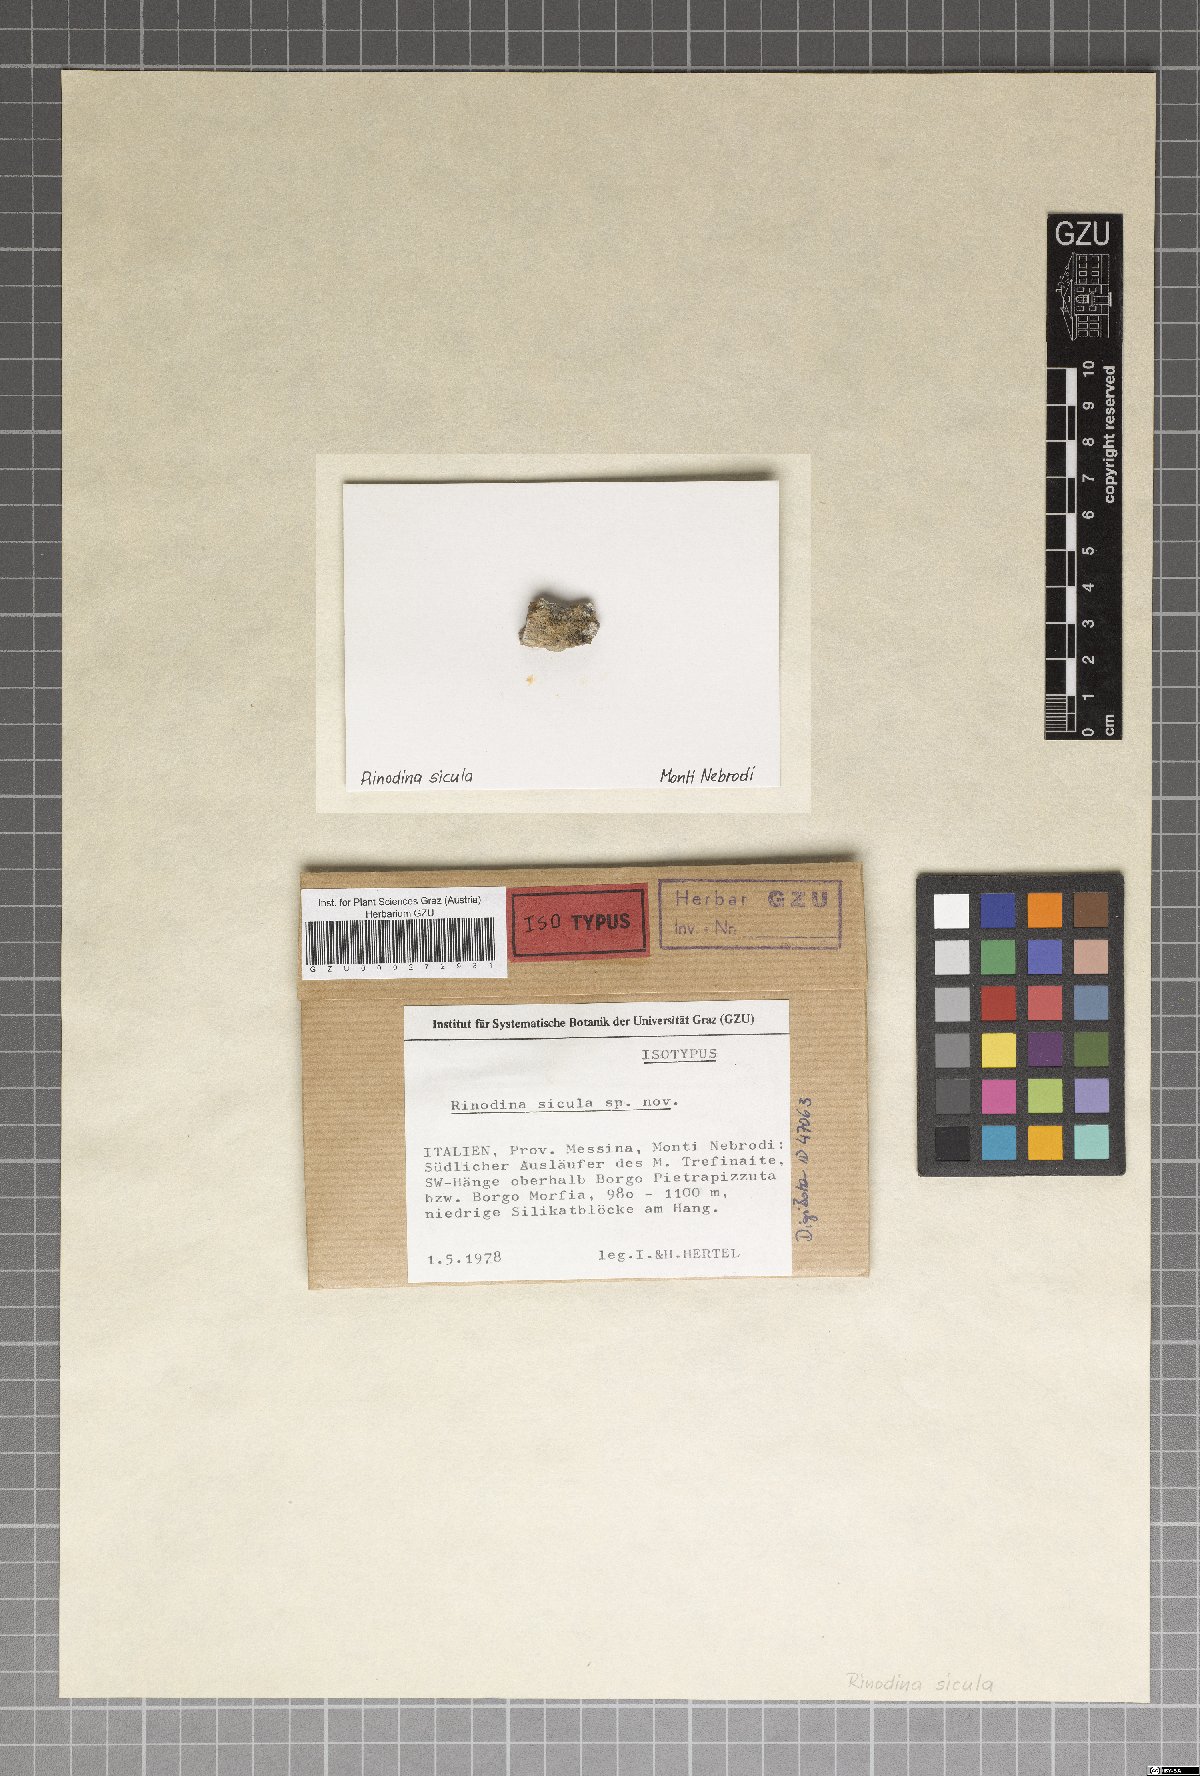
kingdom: Fungi
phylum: Ascomycota
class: Lecanoromycetes
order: Caliciales
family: Physciaceae
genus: Rinodina
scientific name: Rinodina sicula
